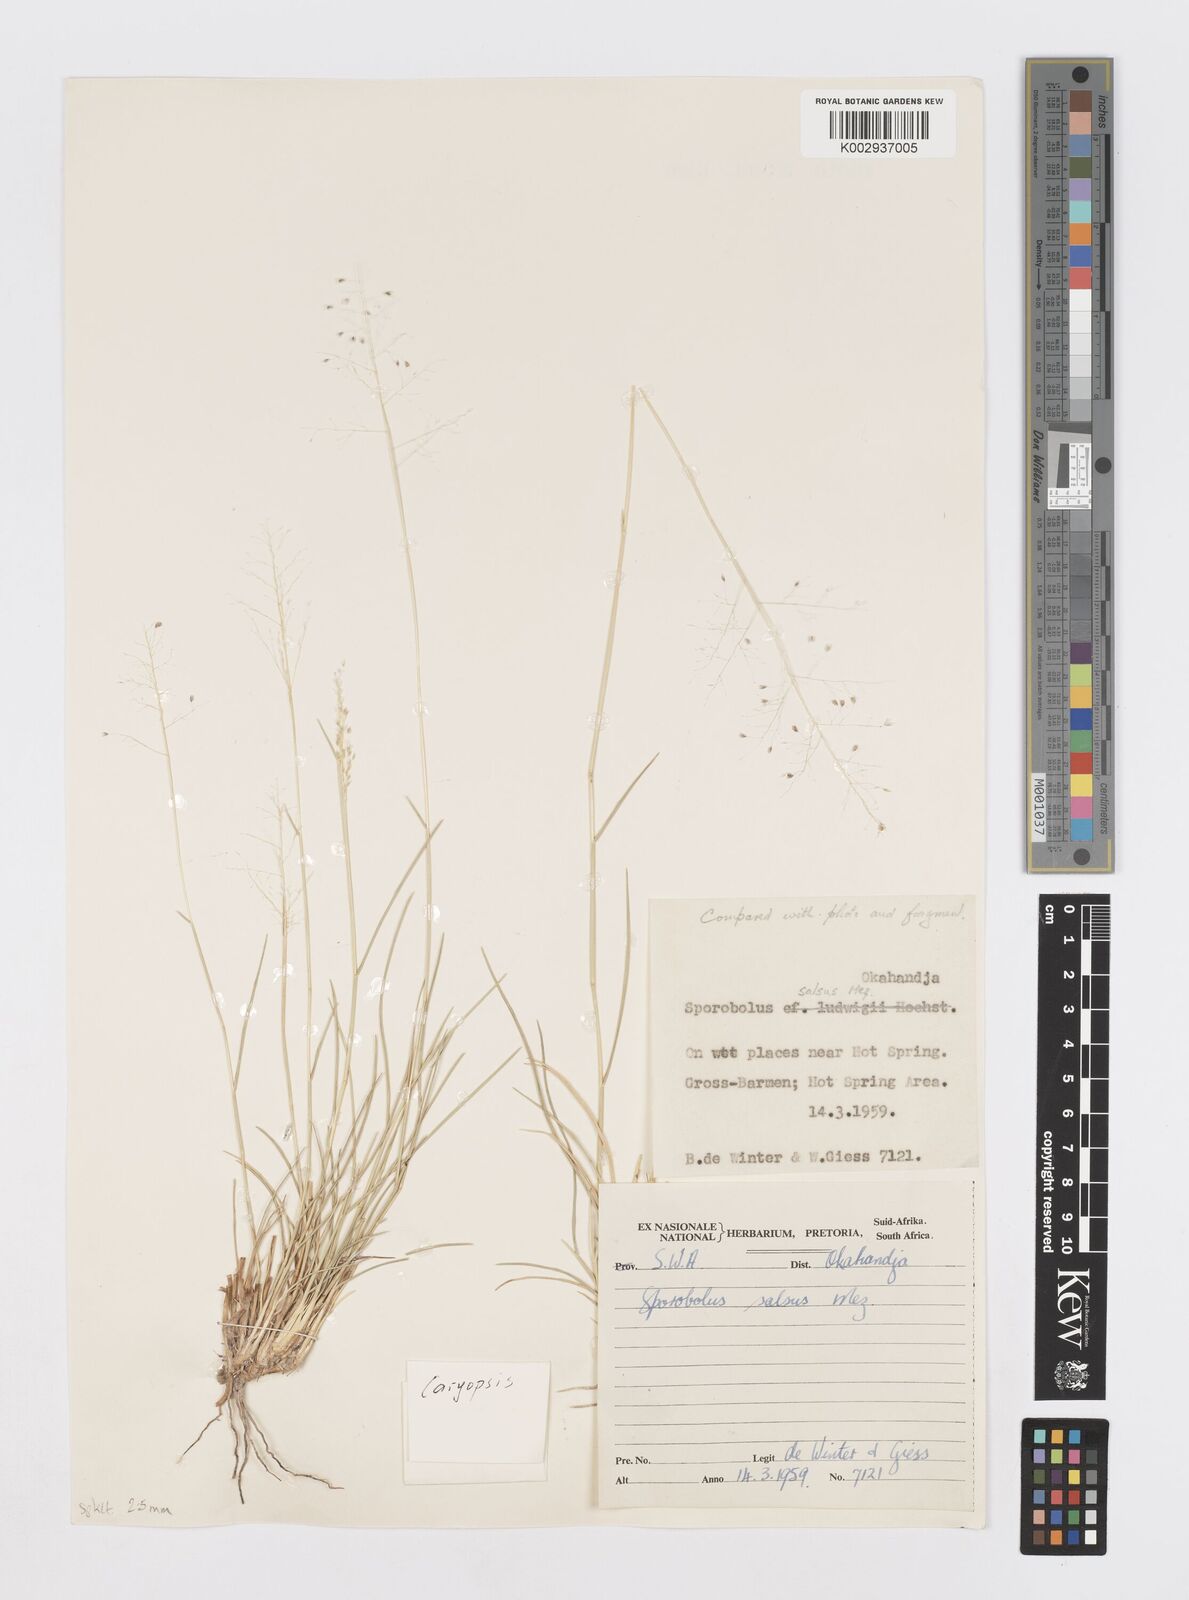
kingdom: Plantae
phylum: Tracheophyta
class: Liliopsida
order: Poales
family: Poaceae
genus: Sporobolus
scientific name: Sporobolus salsus
